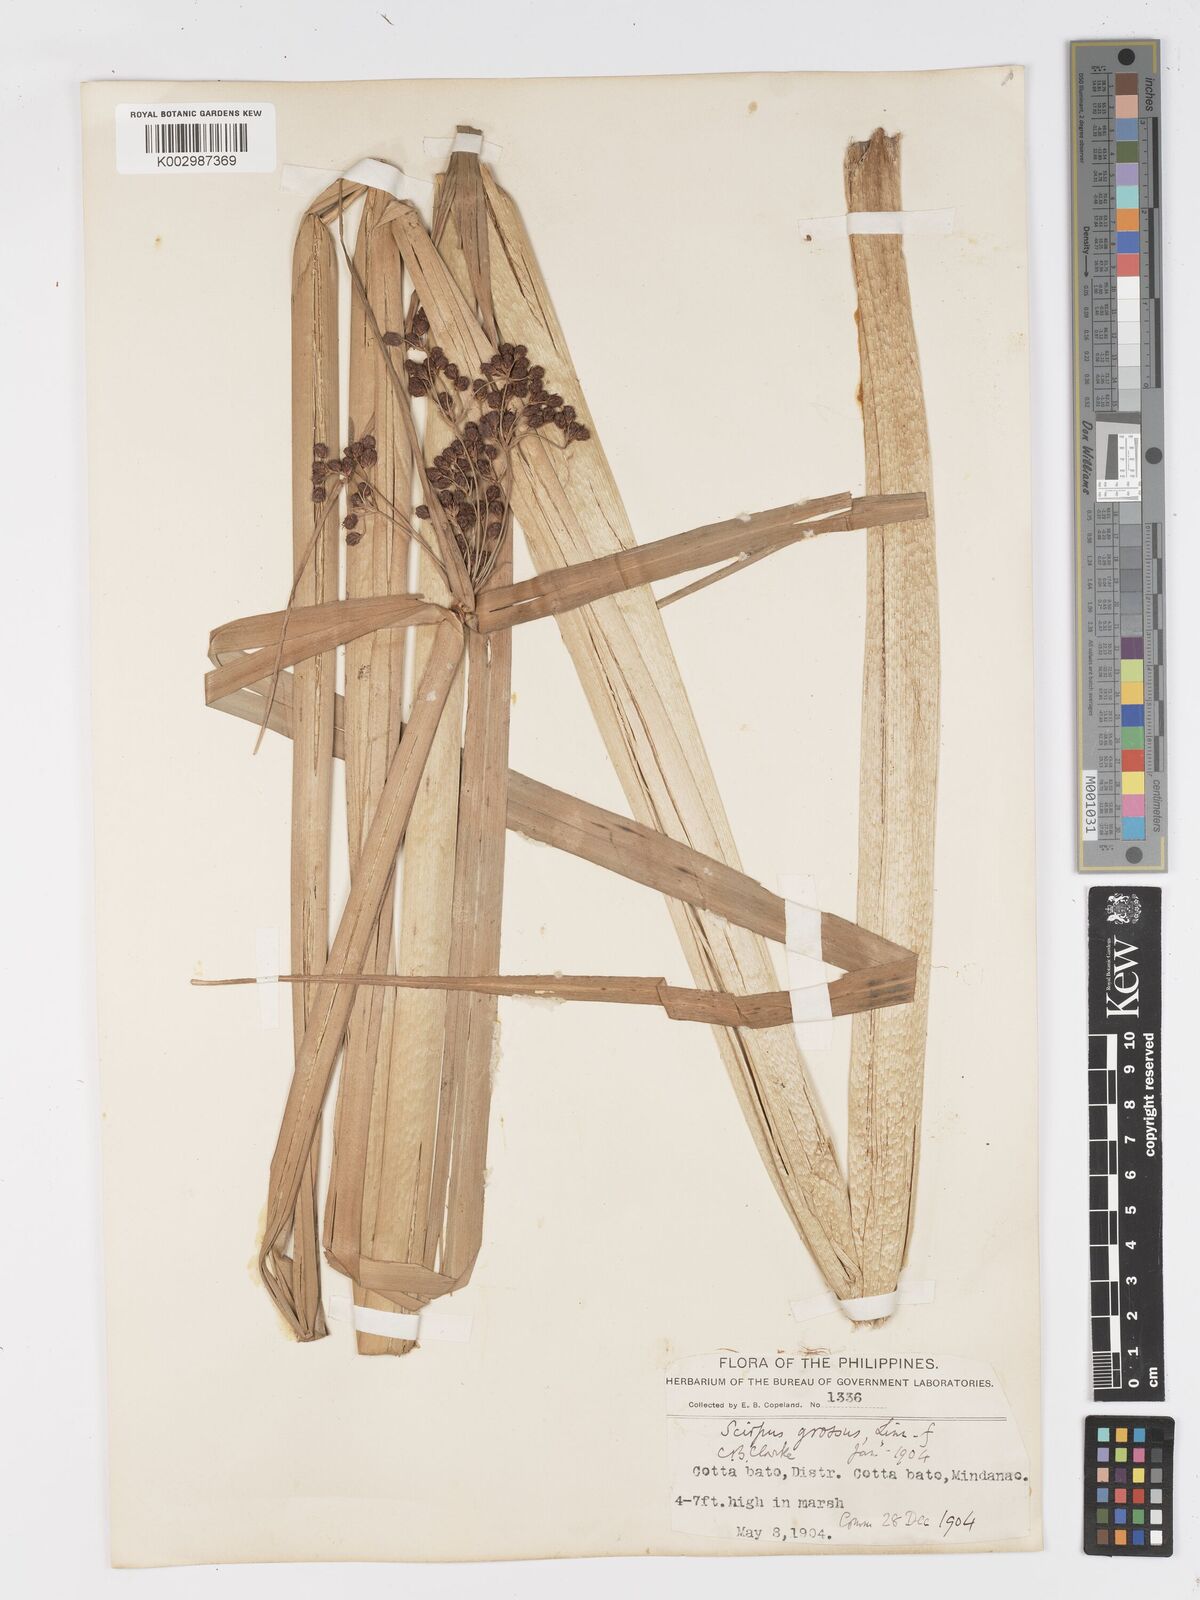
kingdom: Plantae
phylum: Tracheophyta
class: Liliopsida
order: Poales
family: Cyperaceae
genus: Actinoscirpus
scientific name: Actinoscirpus grossus
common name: Giant bur rush
